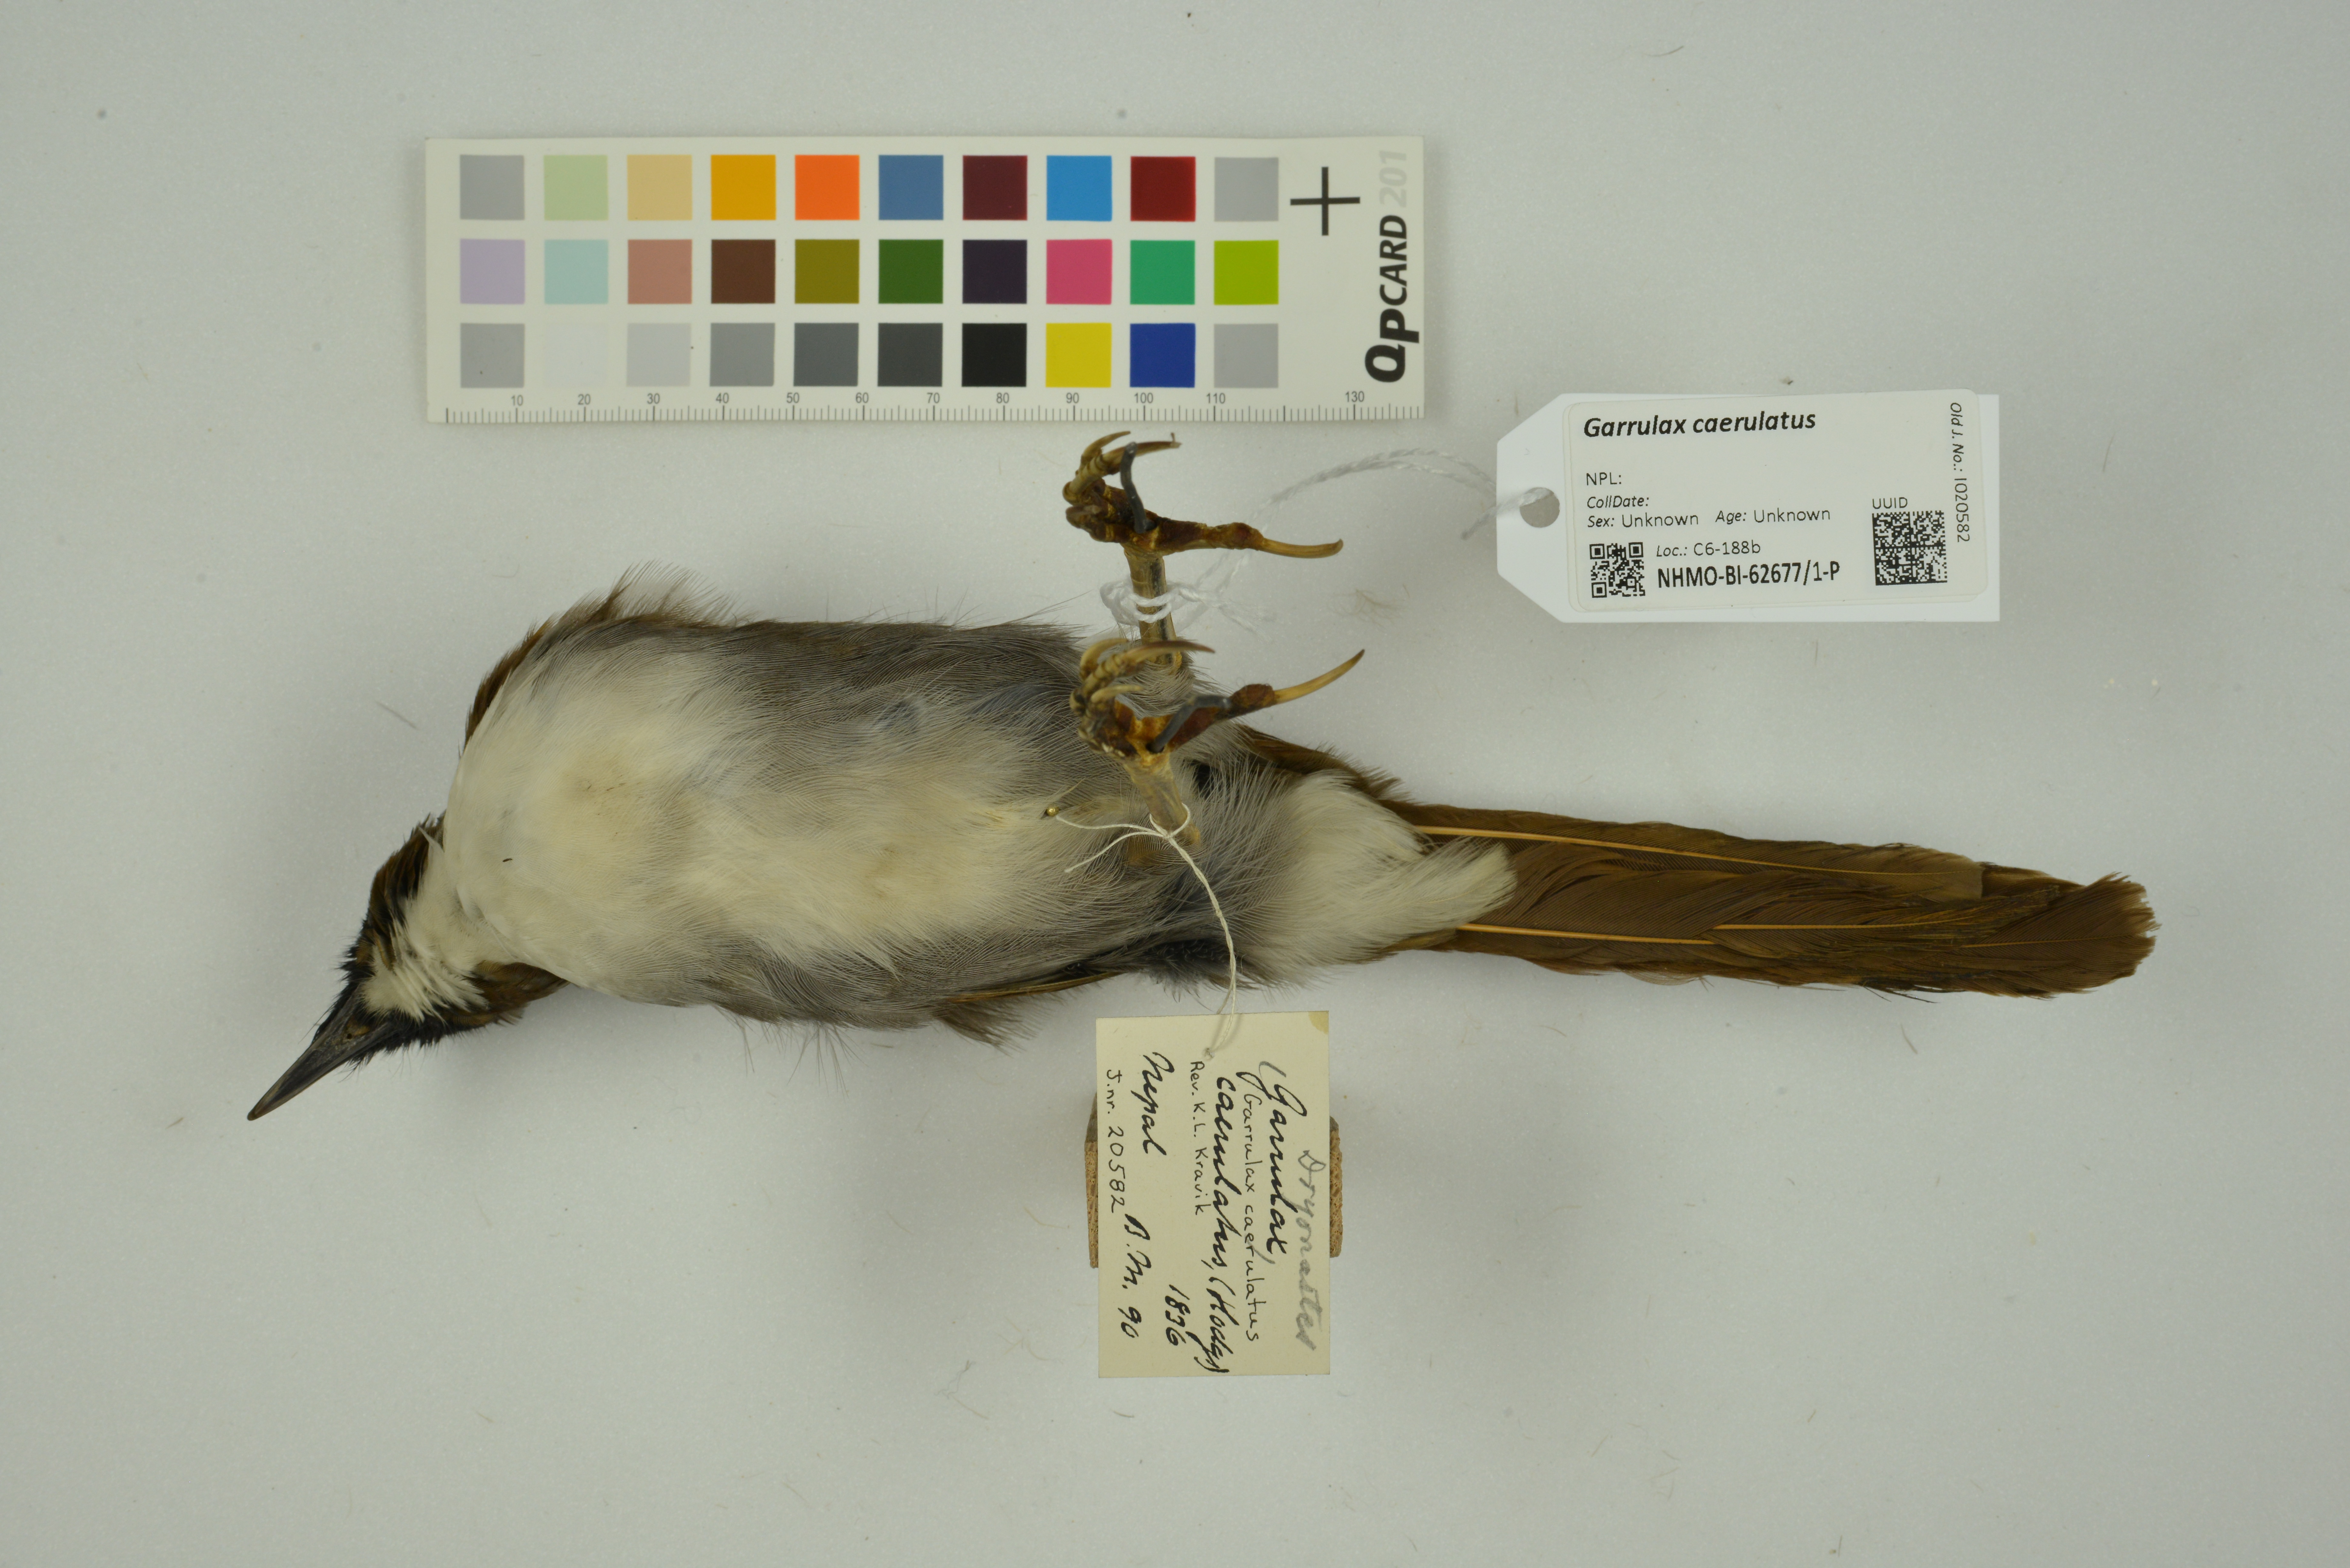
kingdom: Animalia
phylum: Chordata
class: Aves
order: Passeriformes
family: Leiothrichidae
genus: Garrulax
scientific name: Garrulax caerulatus
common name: Grey-sided laughingthrush
